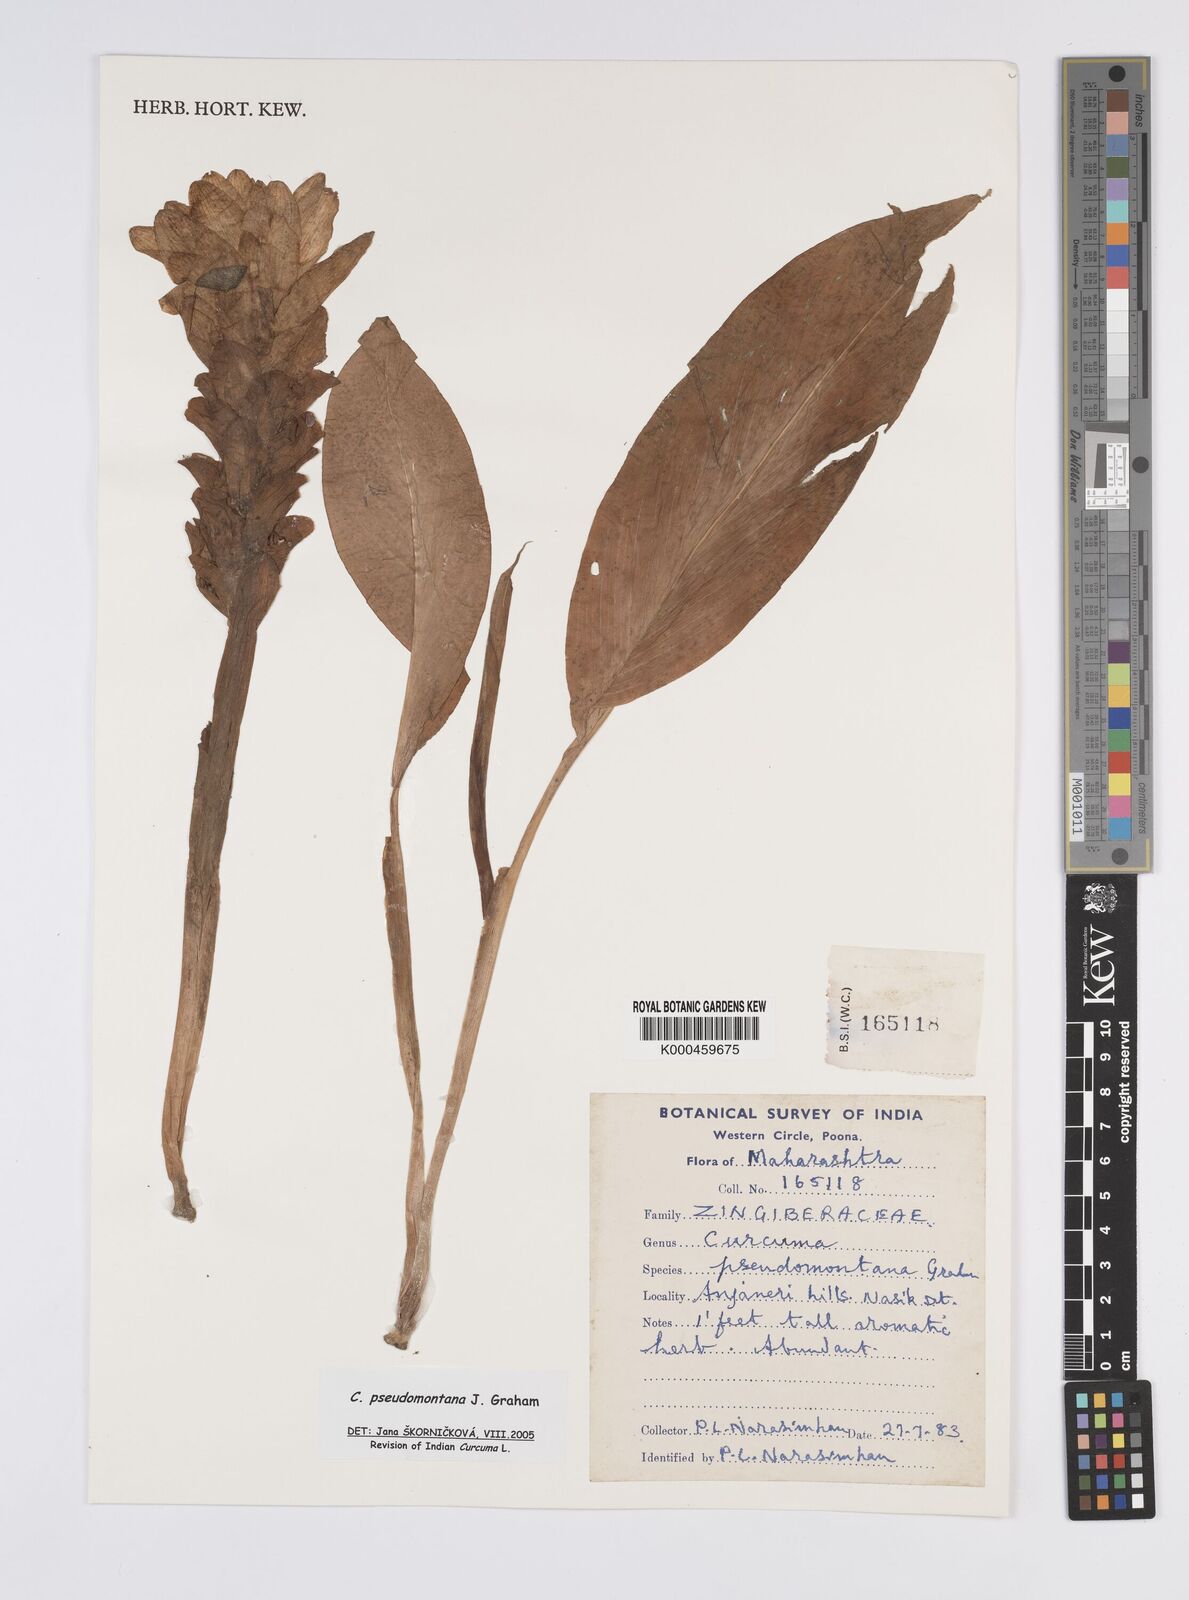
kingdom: Plantae
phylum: Tracheophyta
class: Liliopsida
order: Zingiberales
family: Zingiberaceae
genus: Curcuma
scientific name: Curcuma pseudomontana
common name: Hill turmeric
